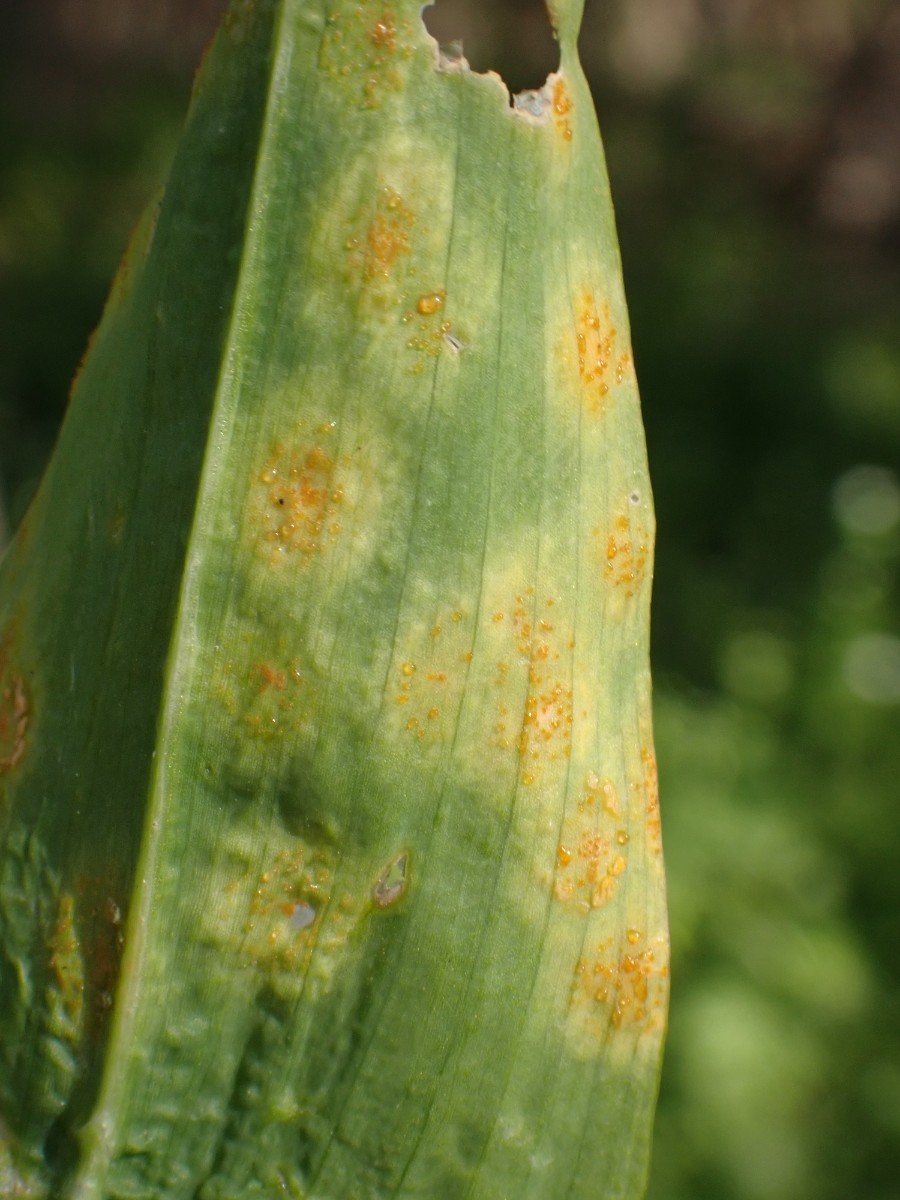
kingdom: Fungi
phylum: Basidiomycota
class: Pucciniomycetes
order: Pucciniales
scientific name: Pucciniales
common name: rustsvampeordenen
